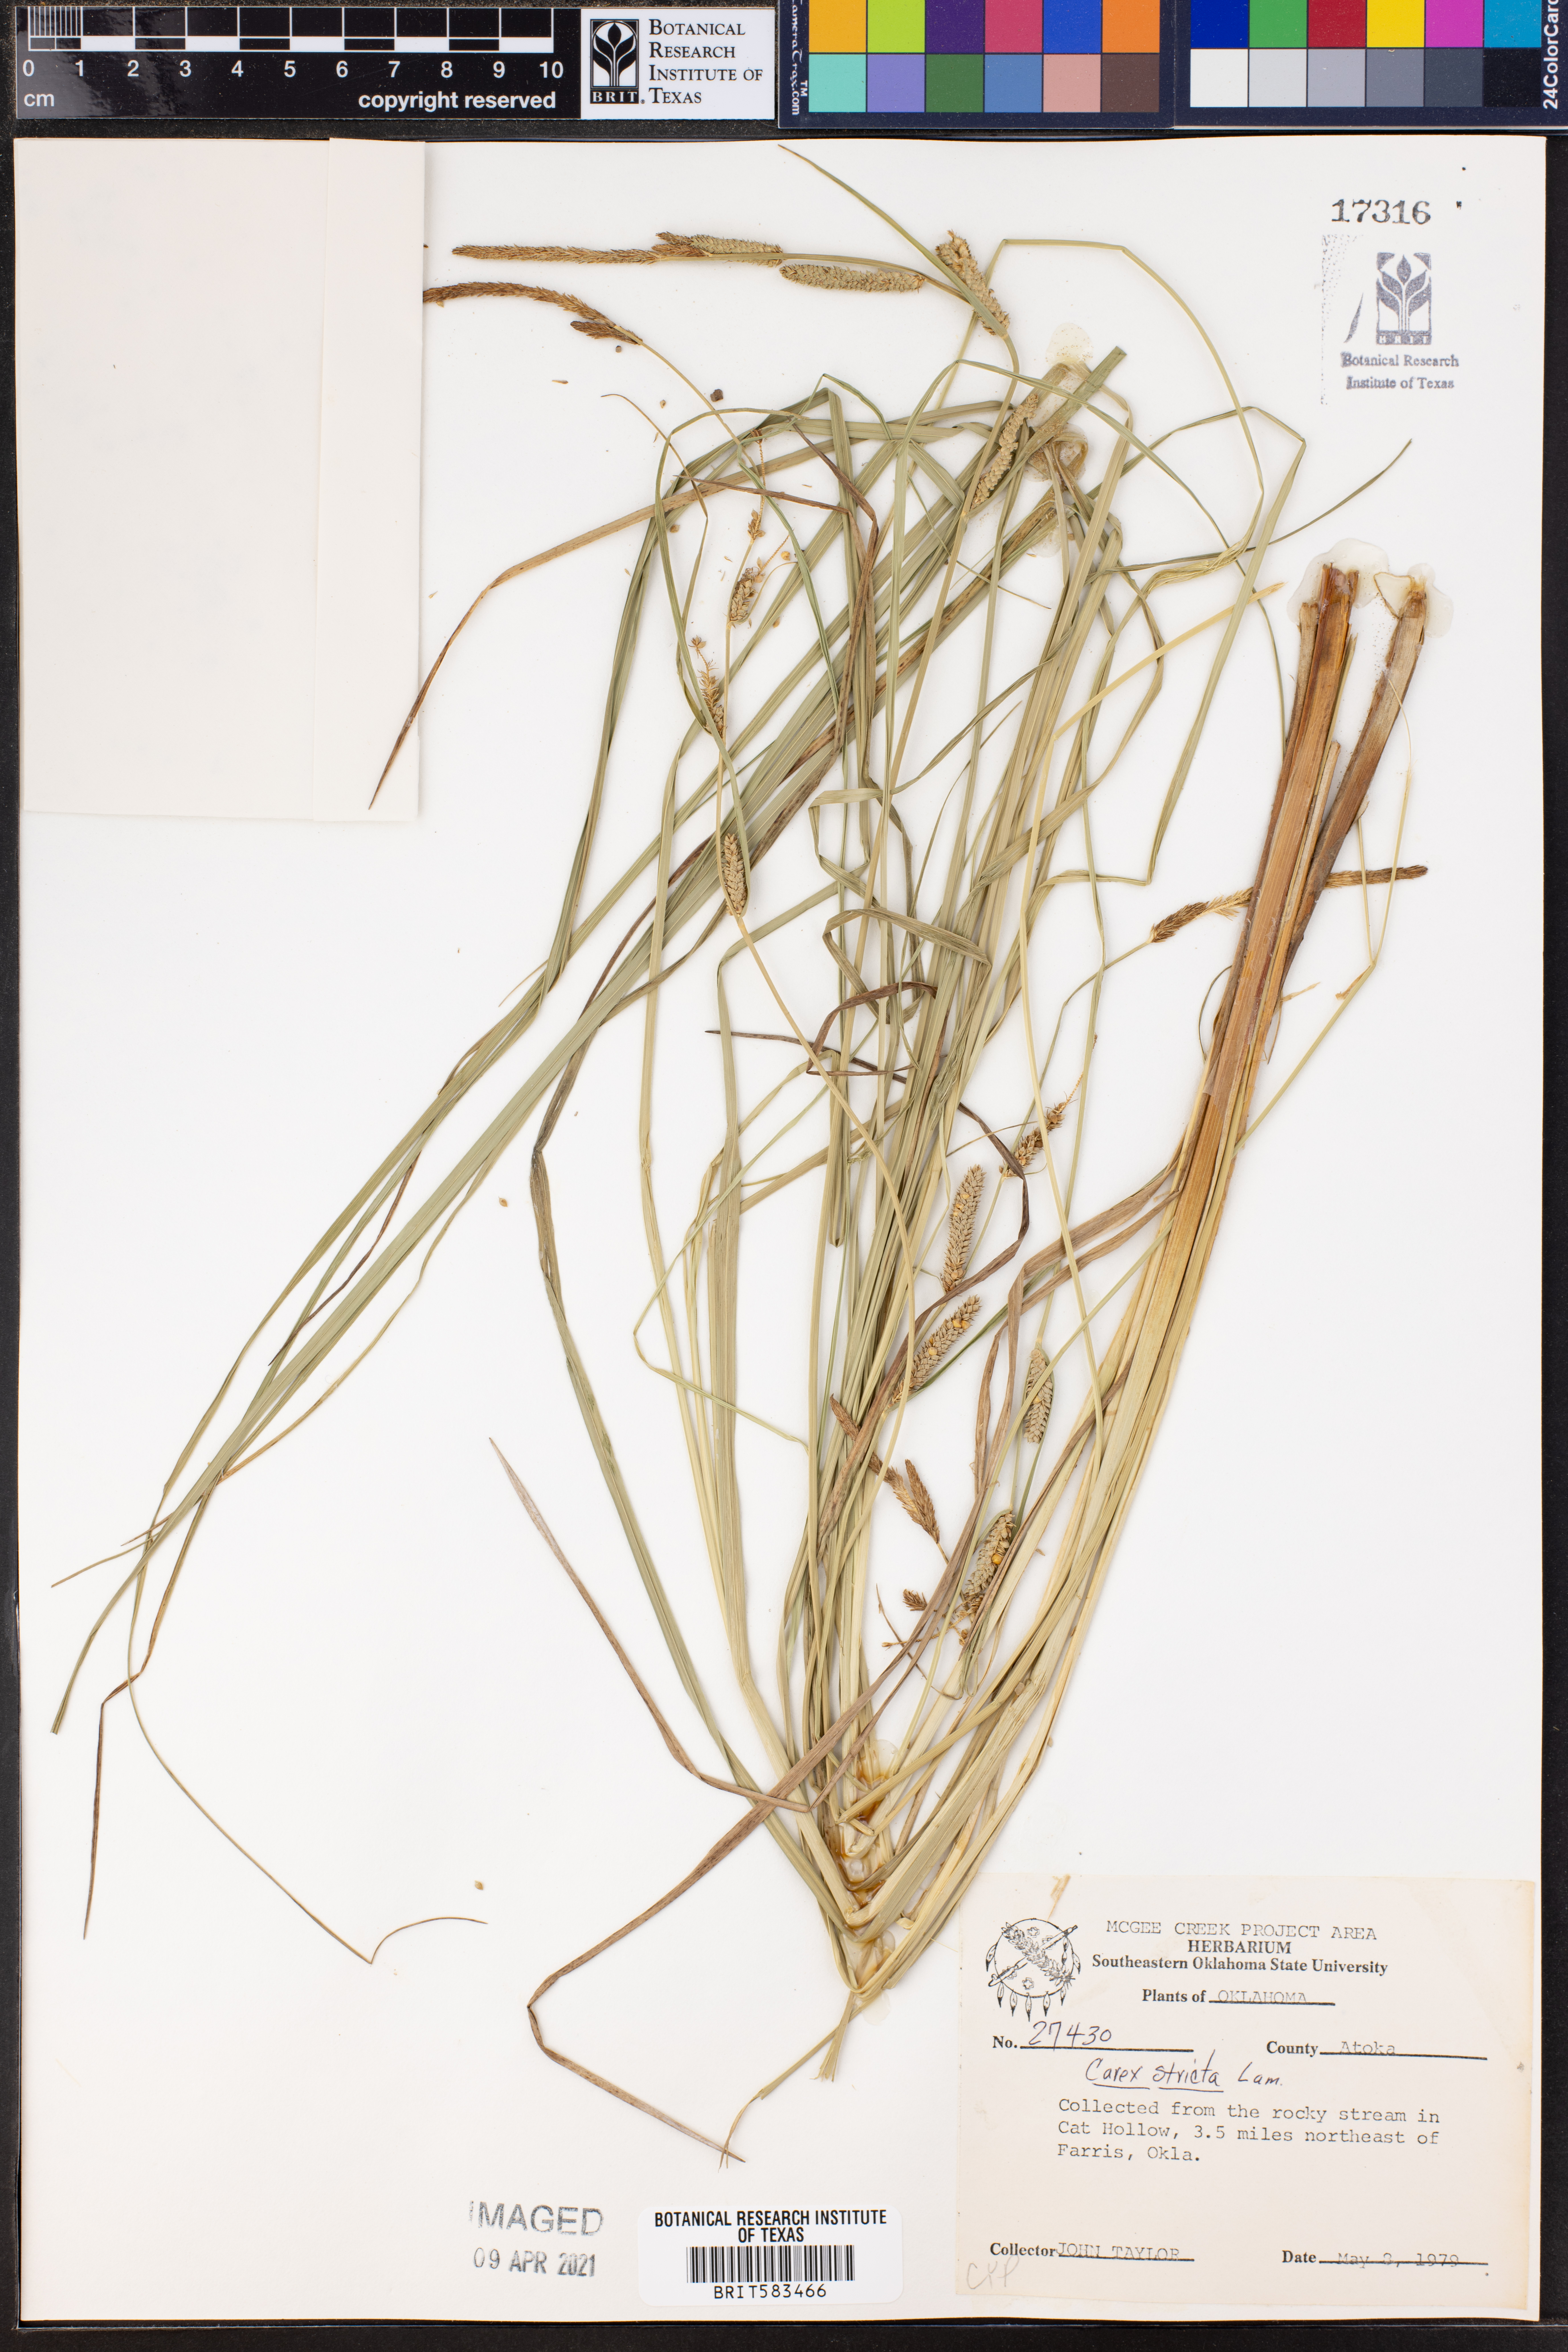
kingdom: Plantae
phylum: Tracheophyta
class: Liliopsida
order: Poales
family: Cyperaceae
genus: Carex
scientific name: Carex stricta
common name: Hummock sedge
